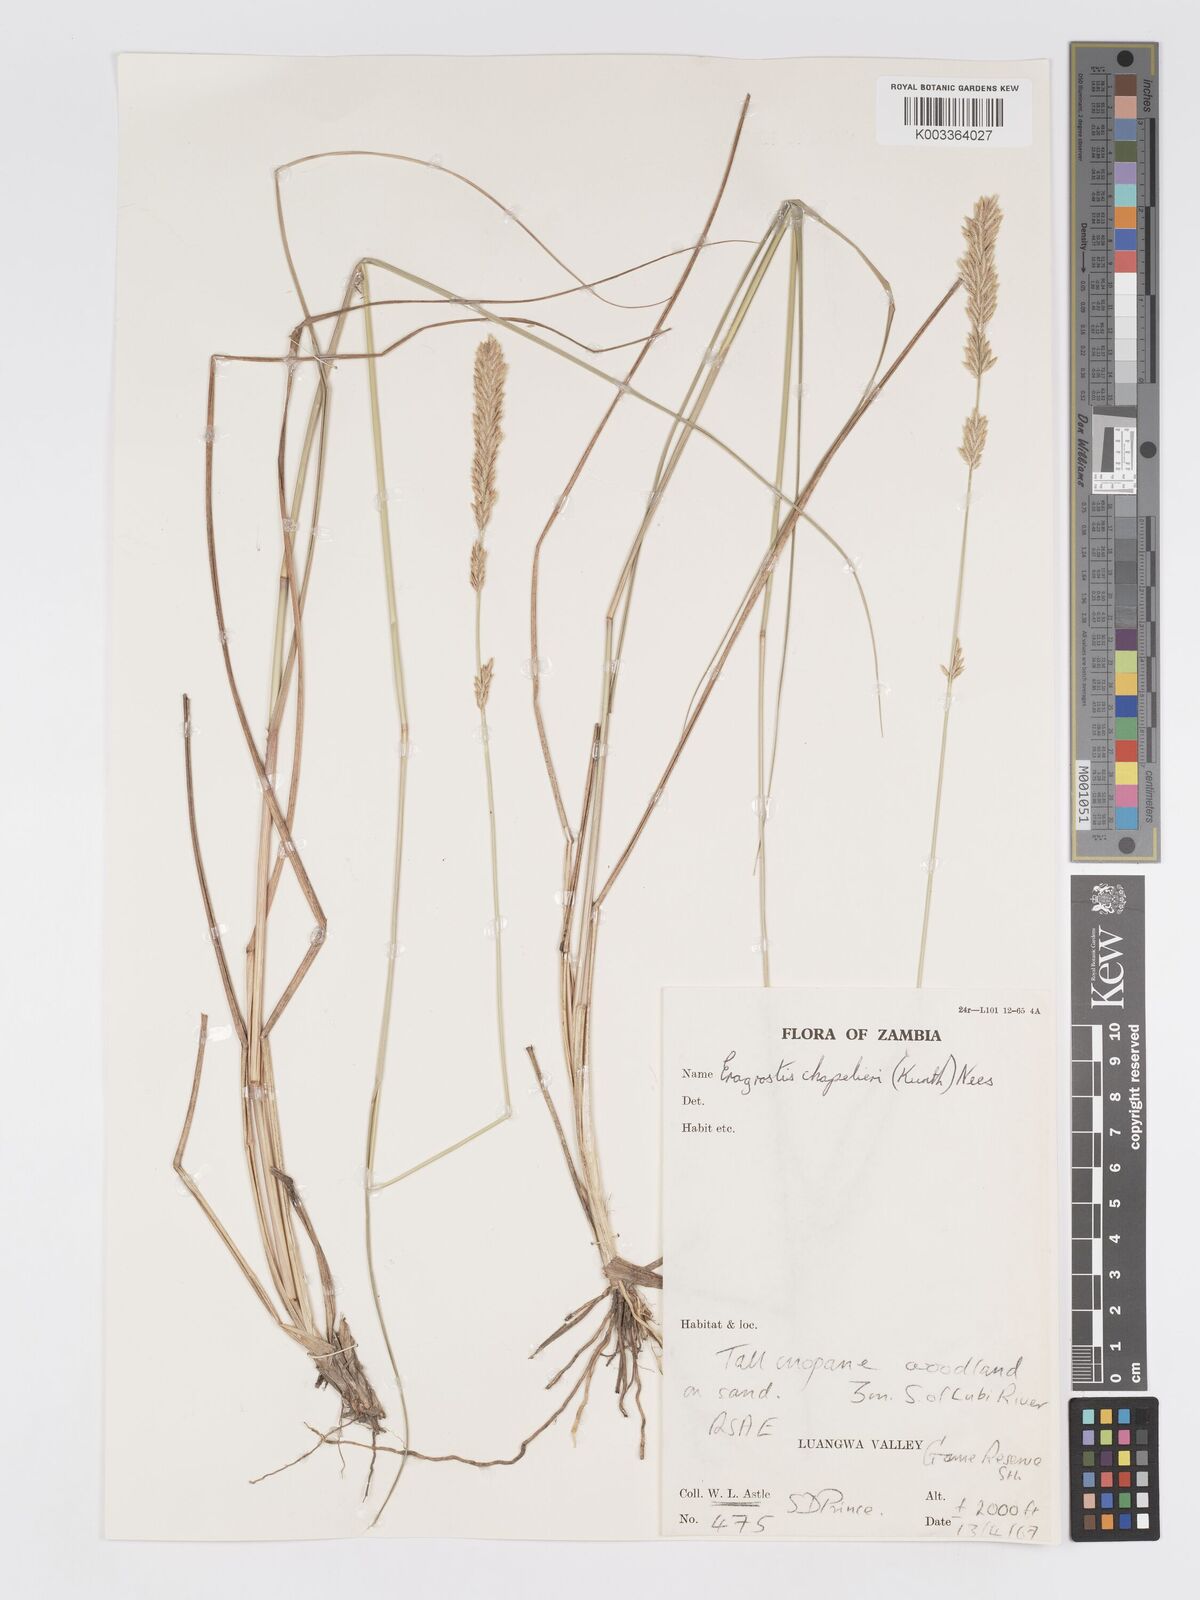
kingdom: Plantae
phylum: Tracheophyta
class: Liliopsida
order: Poales
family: Poaceae
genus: Eragrostis
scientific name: Eragrostis chapelieri
